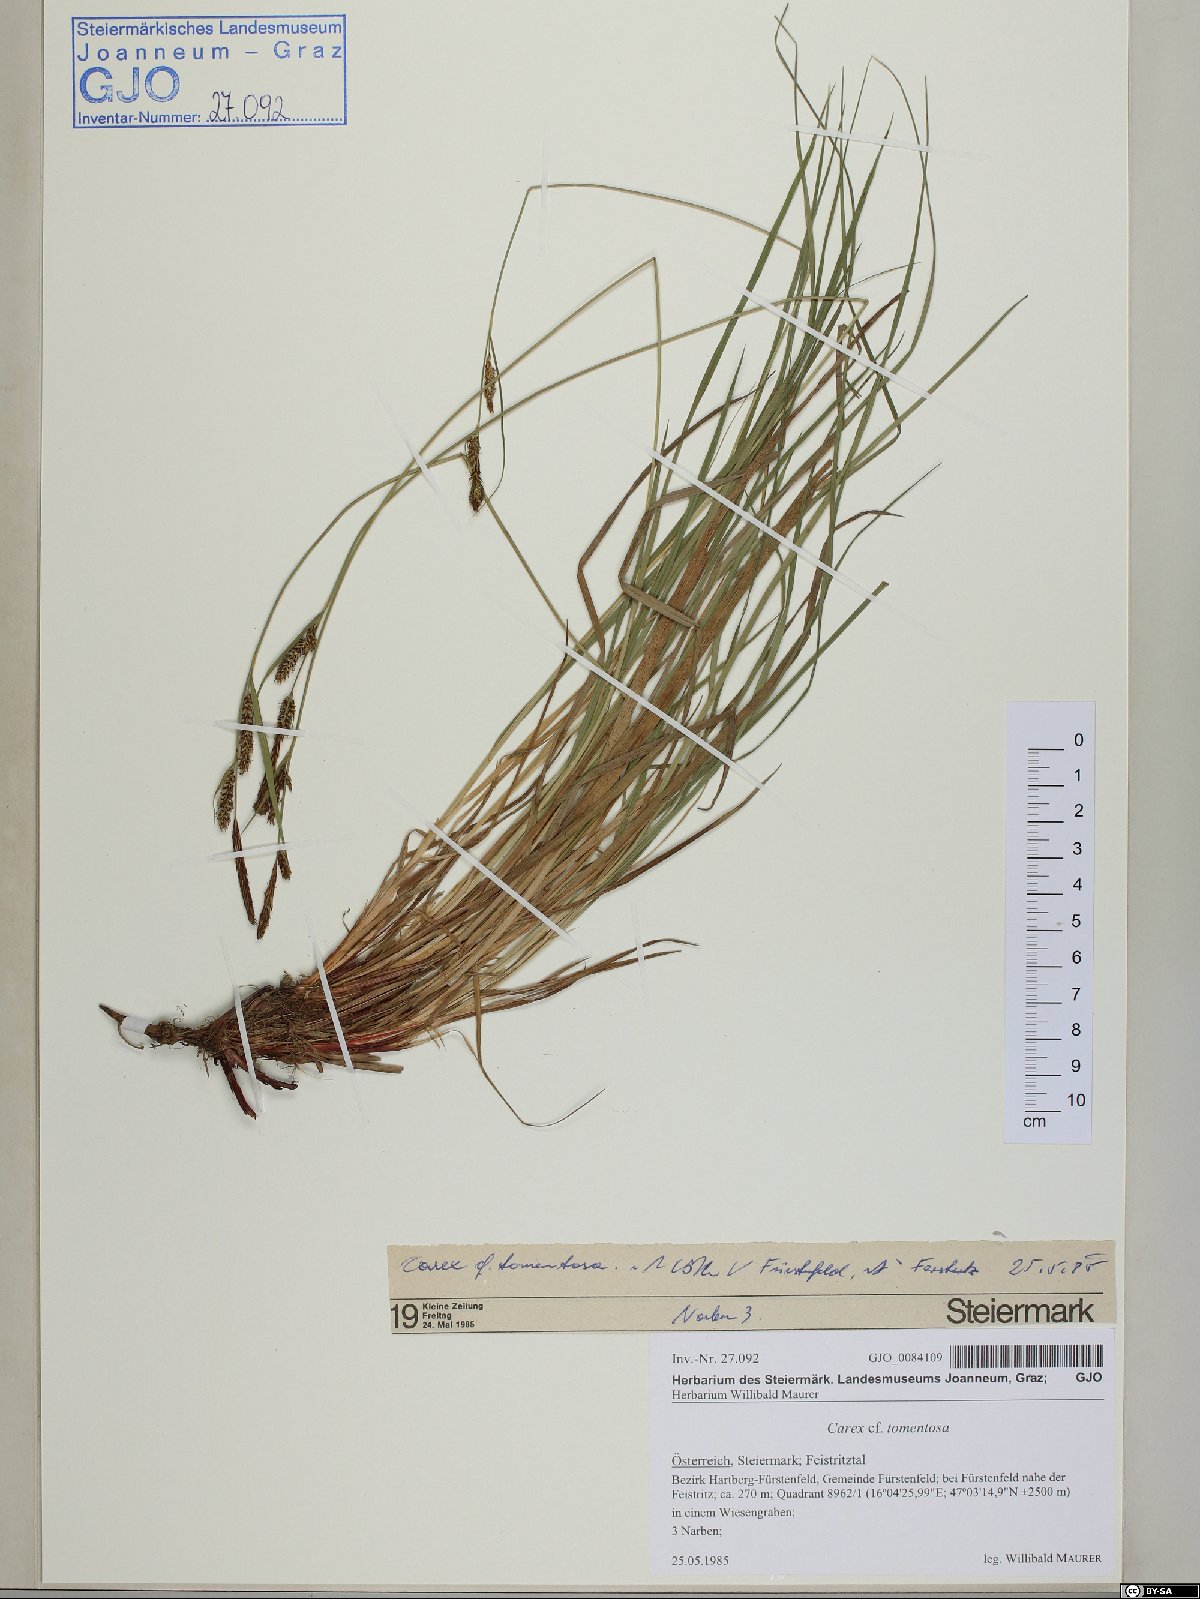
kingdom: Plantae
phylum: Tracheophyta
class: Liliopsida
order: Poales
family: Cyperaceae
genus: Carex
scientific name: Carex tomentosa
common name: Downy-fruited sedge
